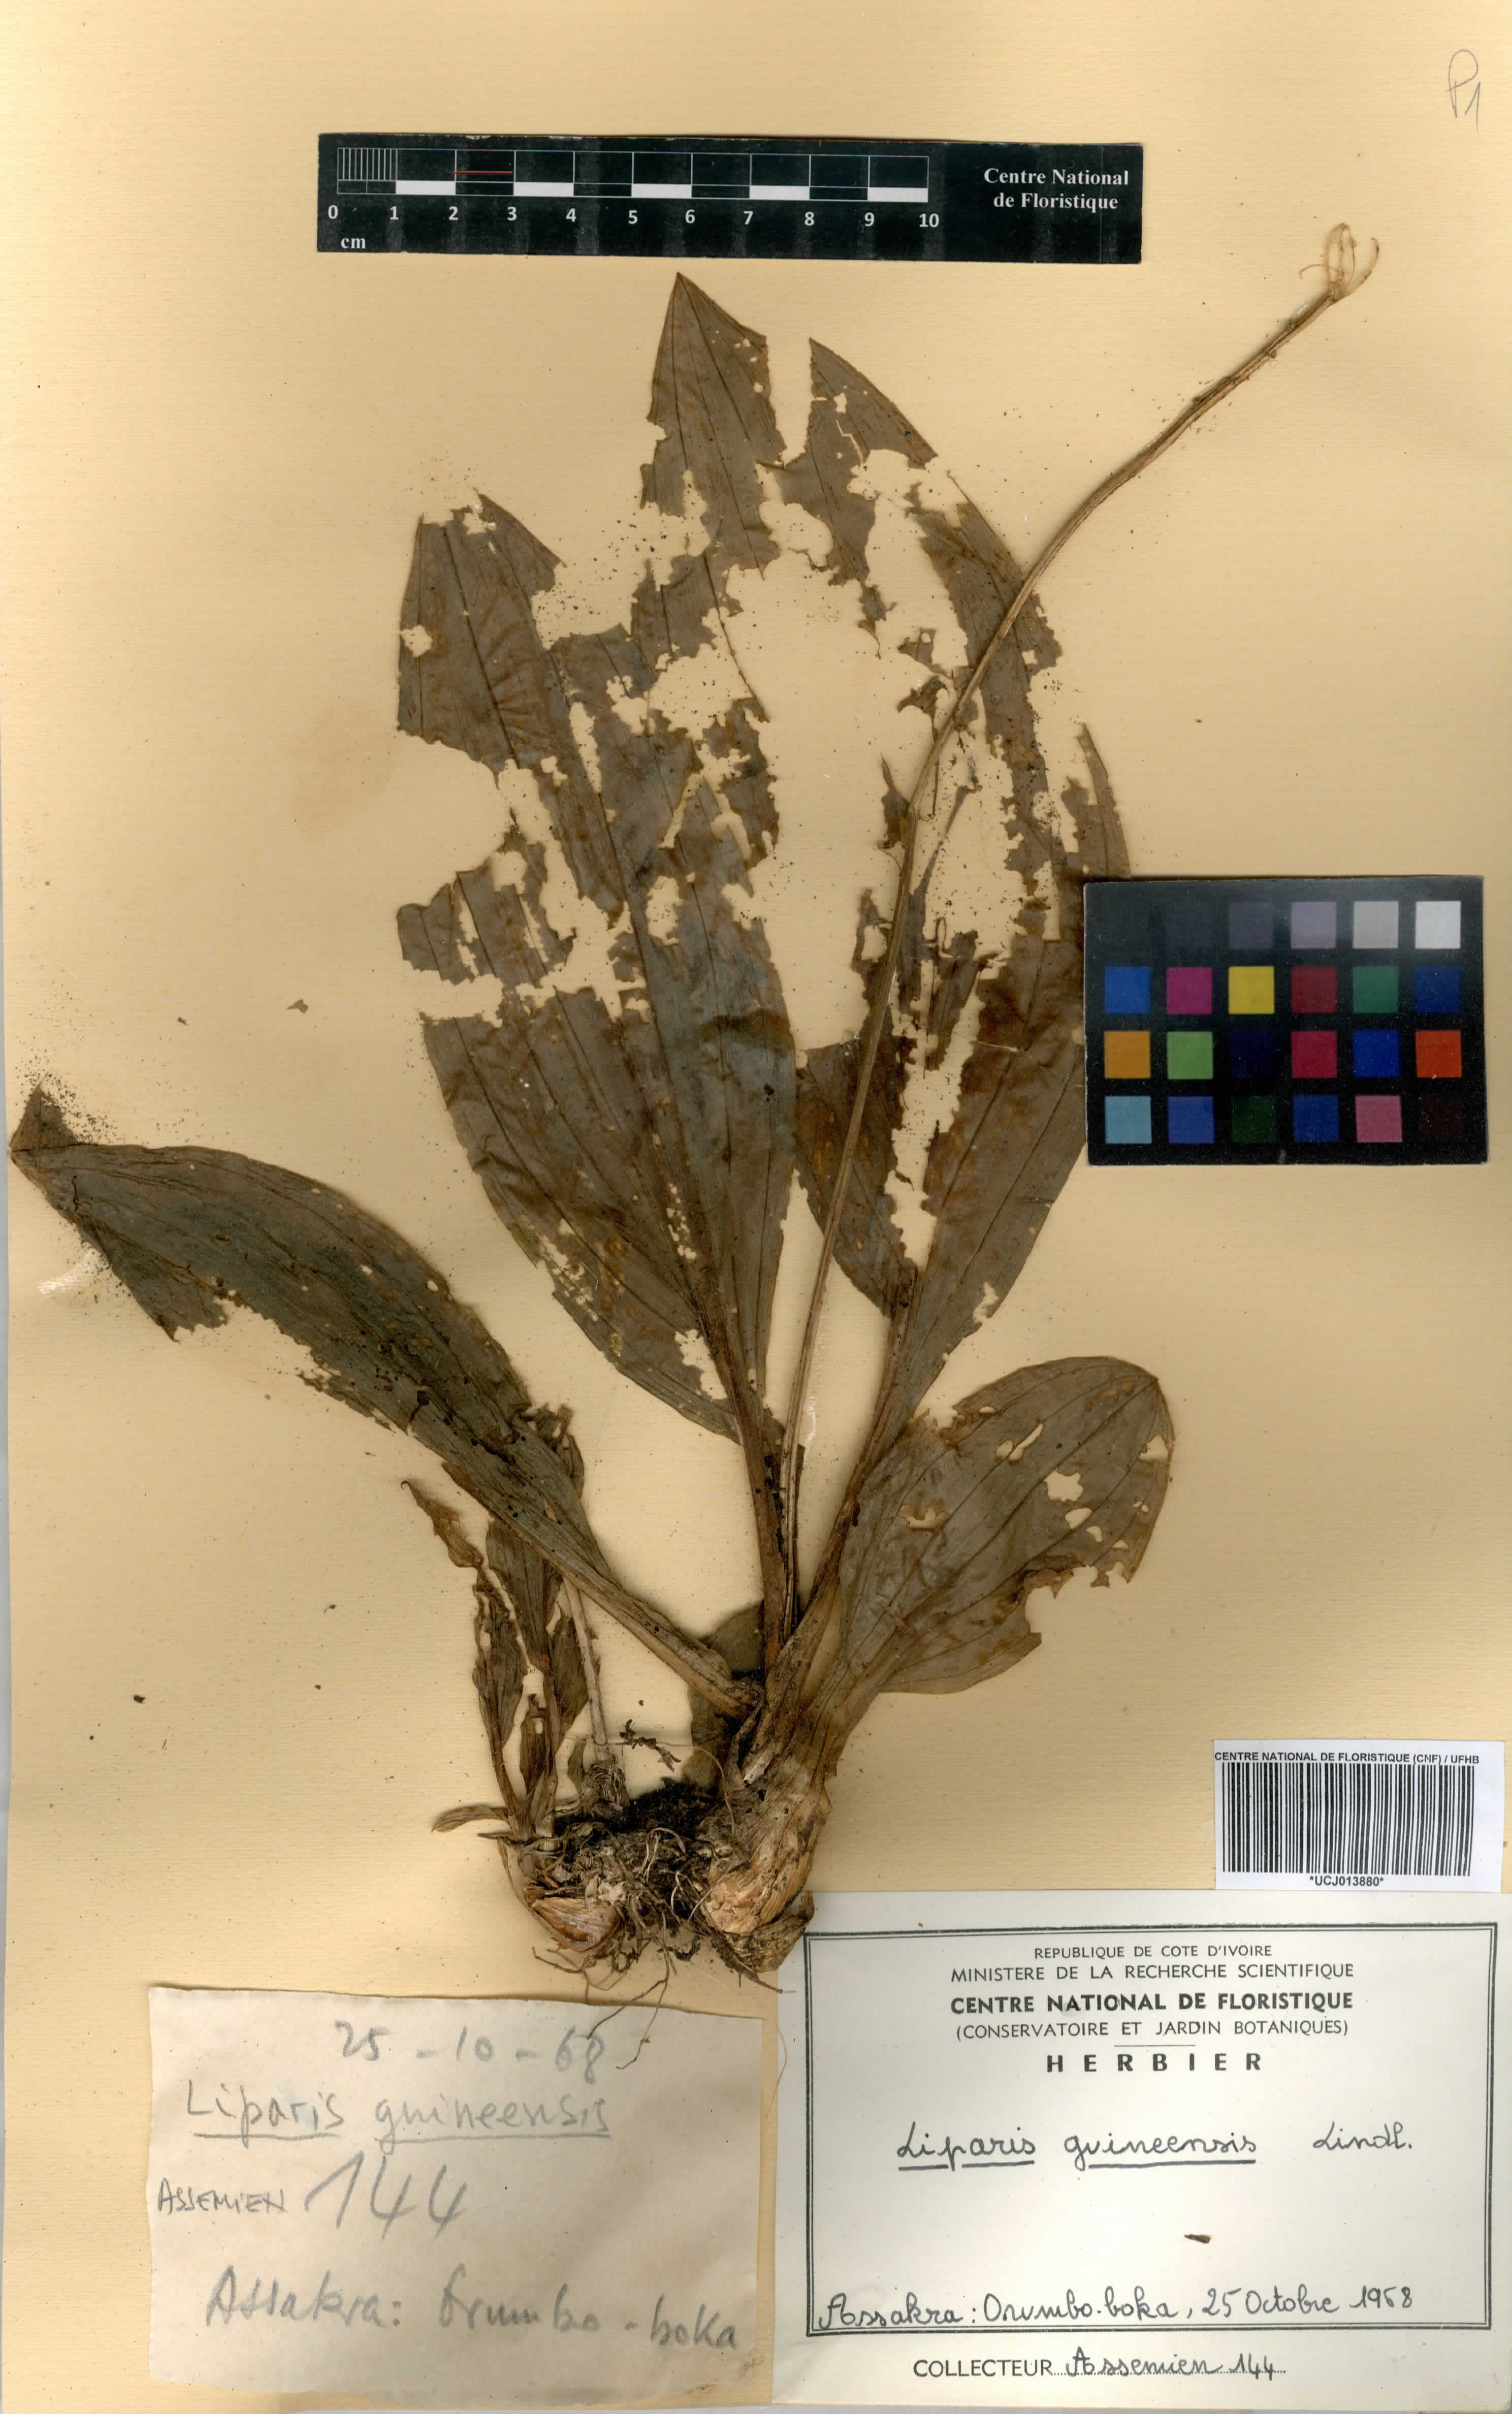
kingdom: Plantae
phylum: Tracheophyta
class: Liliopsida
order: Asparagales
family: Orchidaceae
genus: Liparis
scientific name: Liparis nervosa
